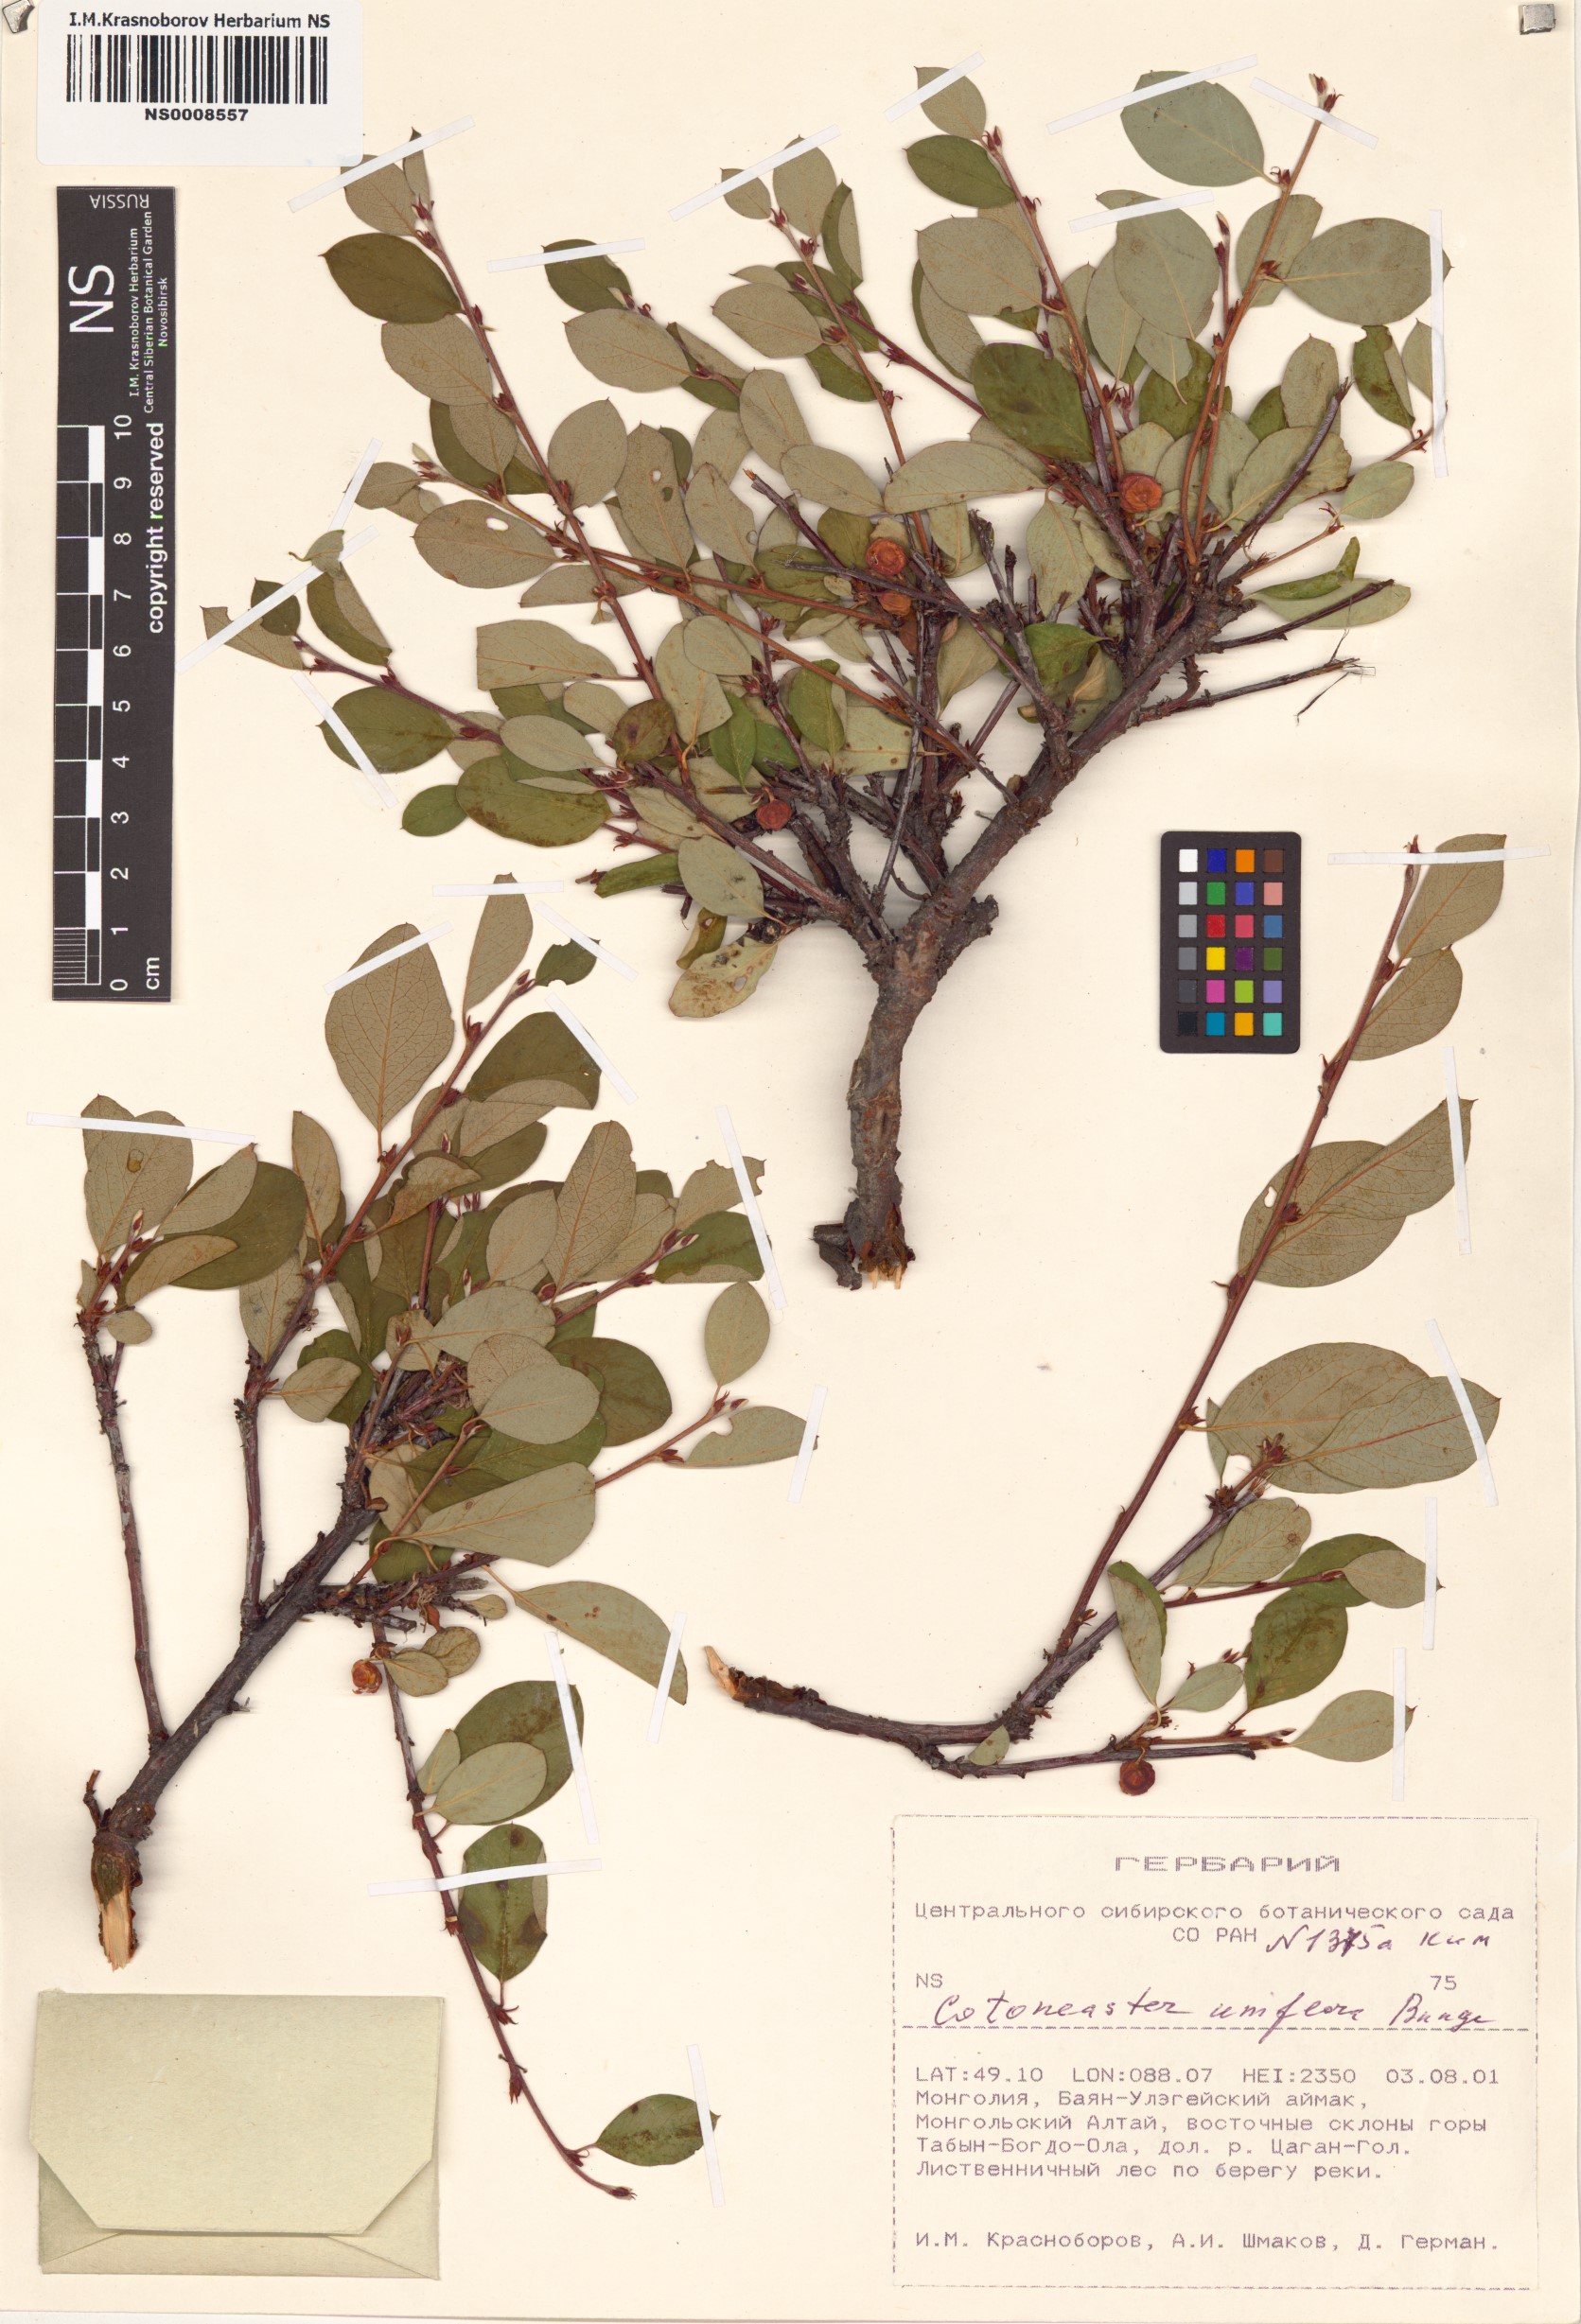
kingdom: Plantae
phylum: Tracheophyta
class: Magnoliopsida
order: Rosales
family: Rosaceae
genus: Cotoneaster
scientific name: Cotoneaster uniflorus
